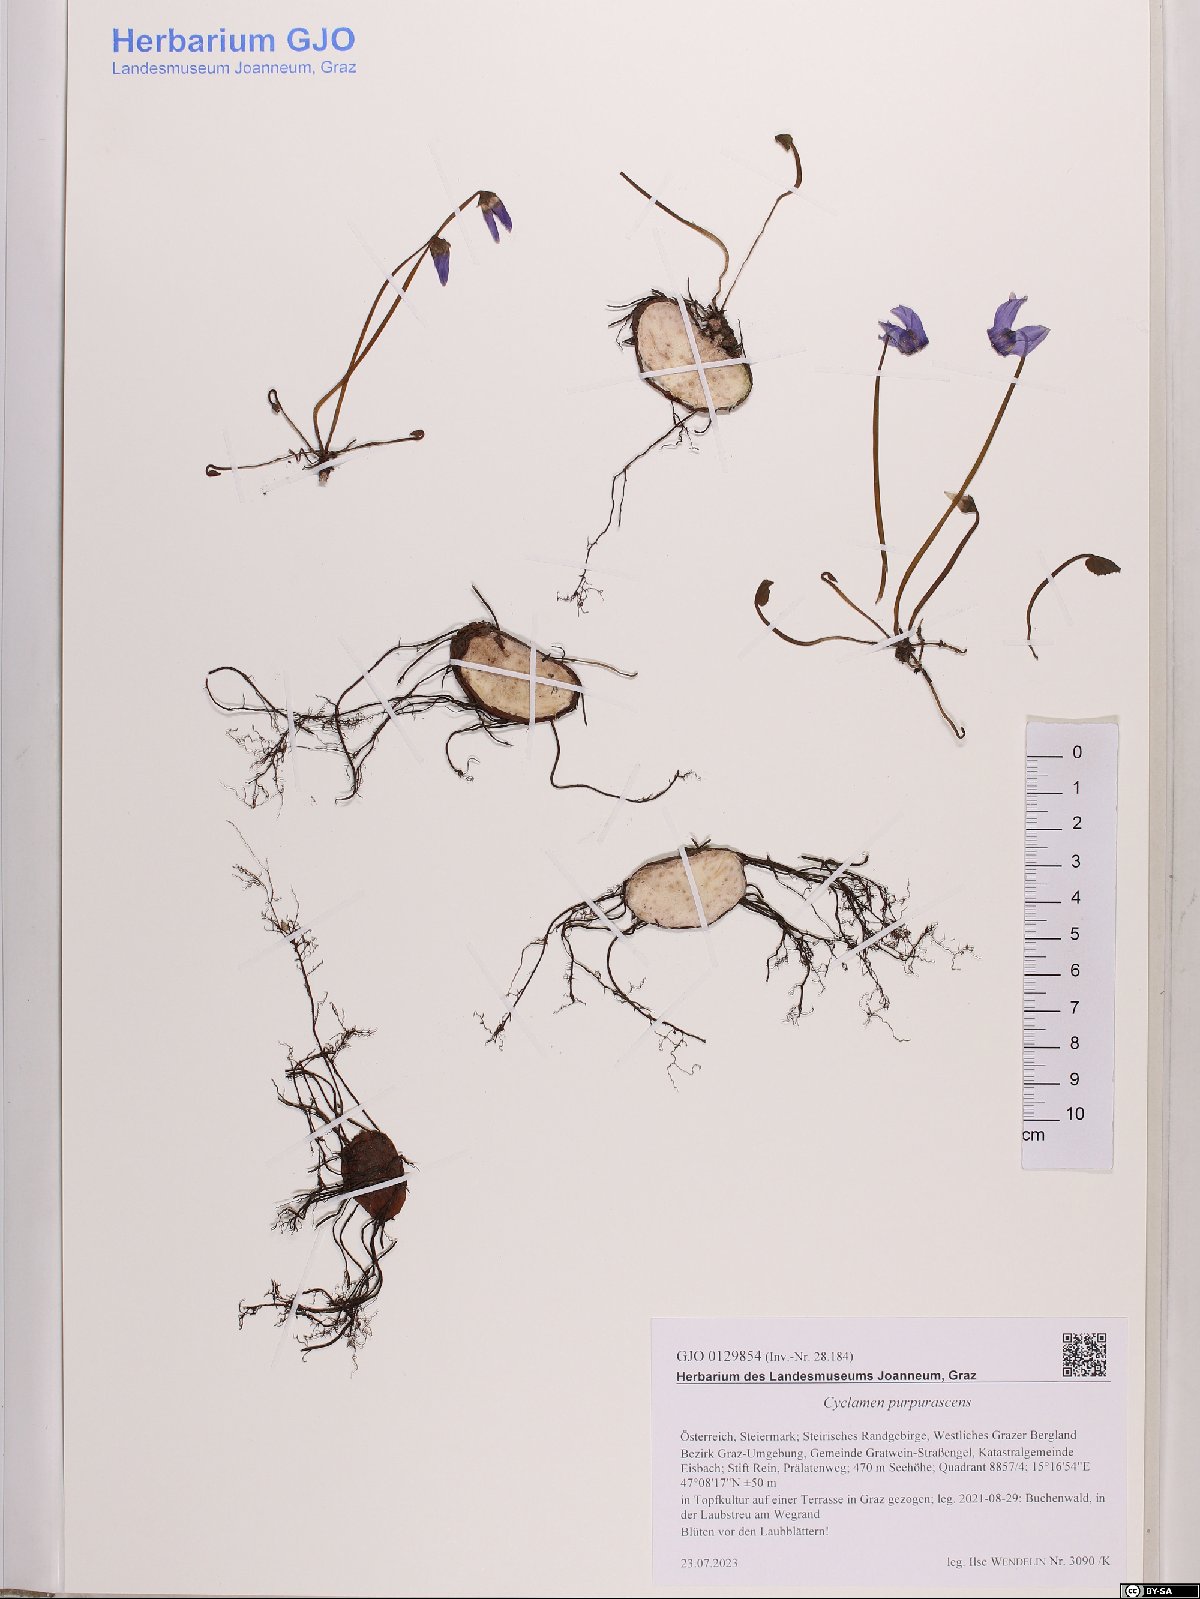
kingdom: Plantae
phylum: Tracheophyta
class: Magnoliopsida
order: Ericales
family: Primulaceae
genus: Cyclamen
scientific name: Cyclamen purpurascens
